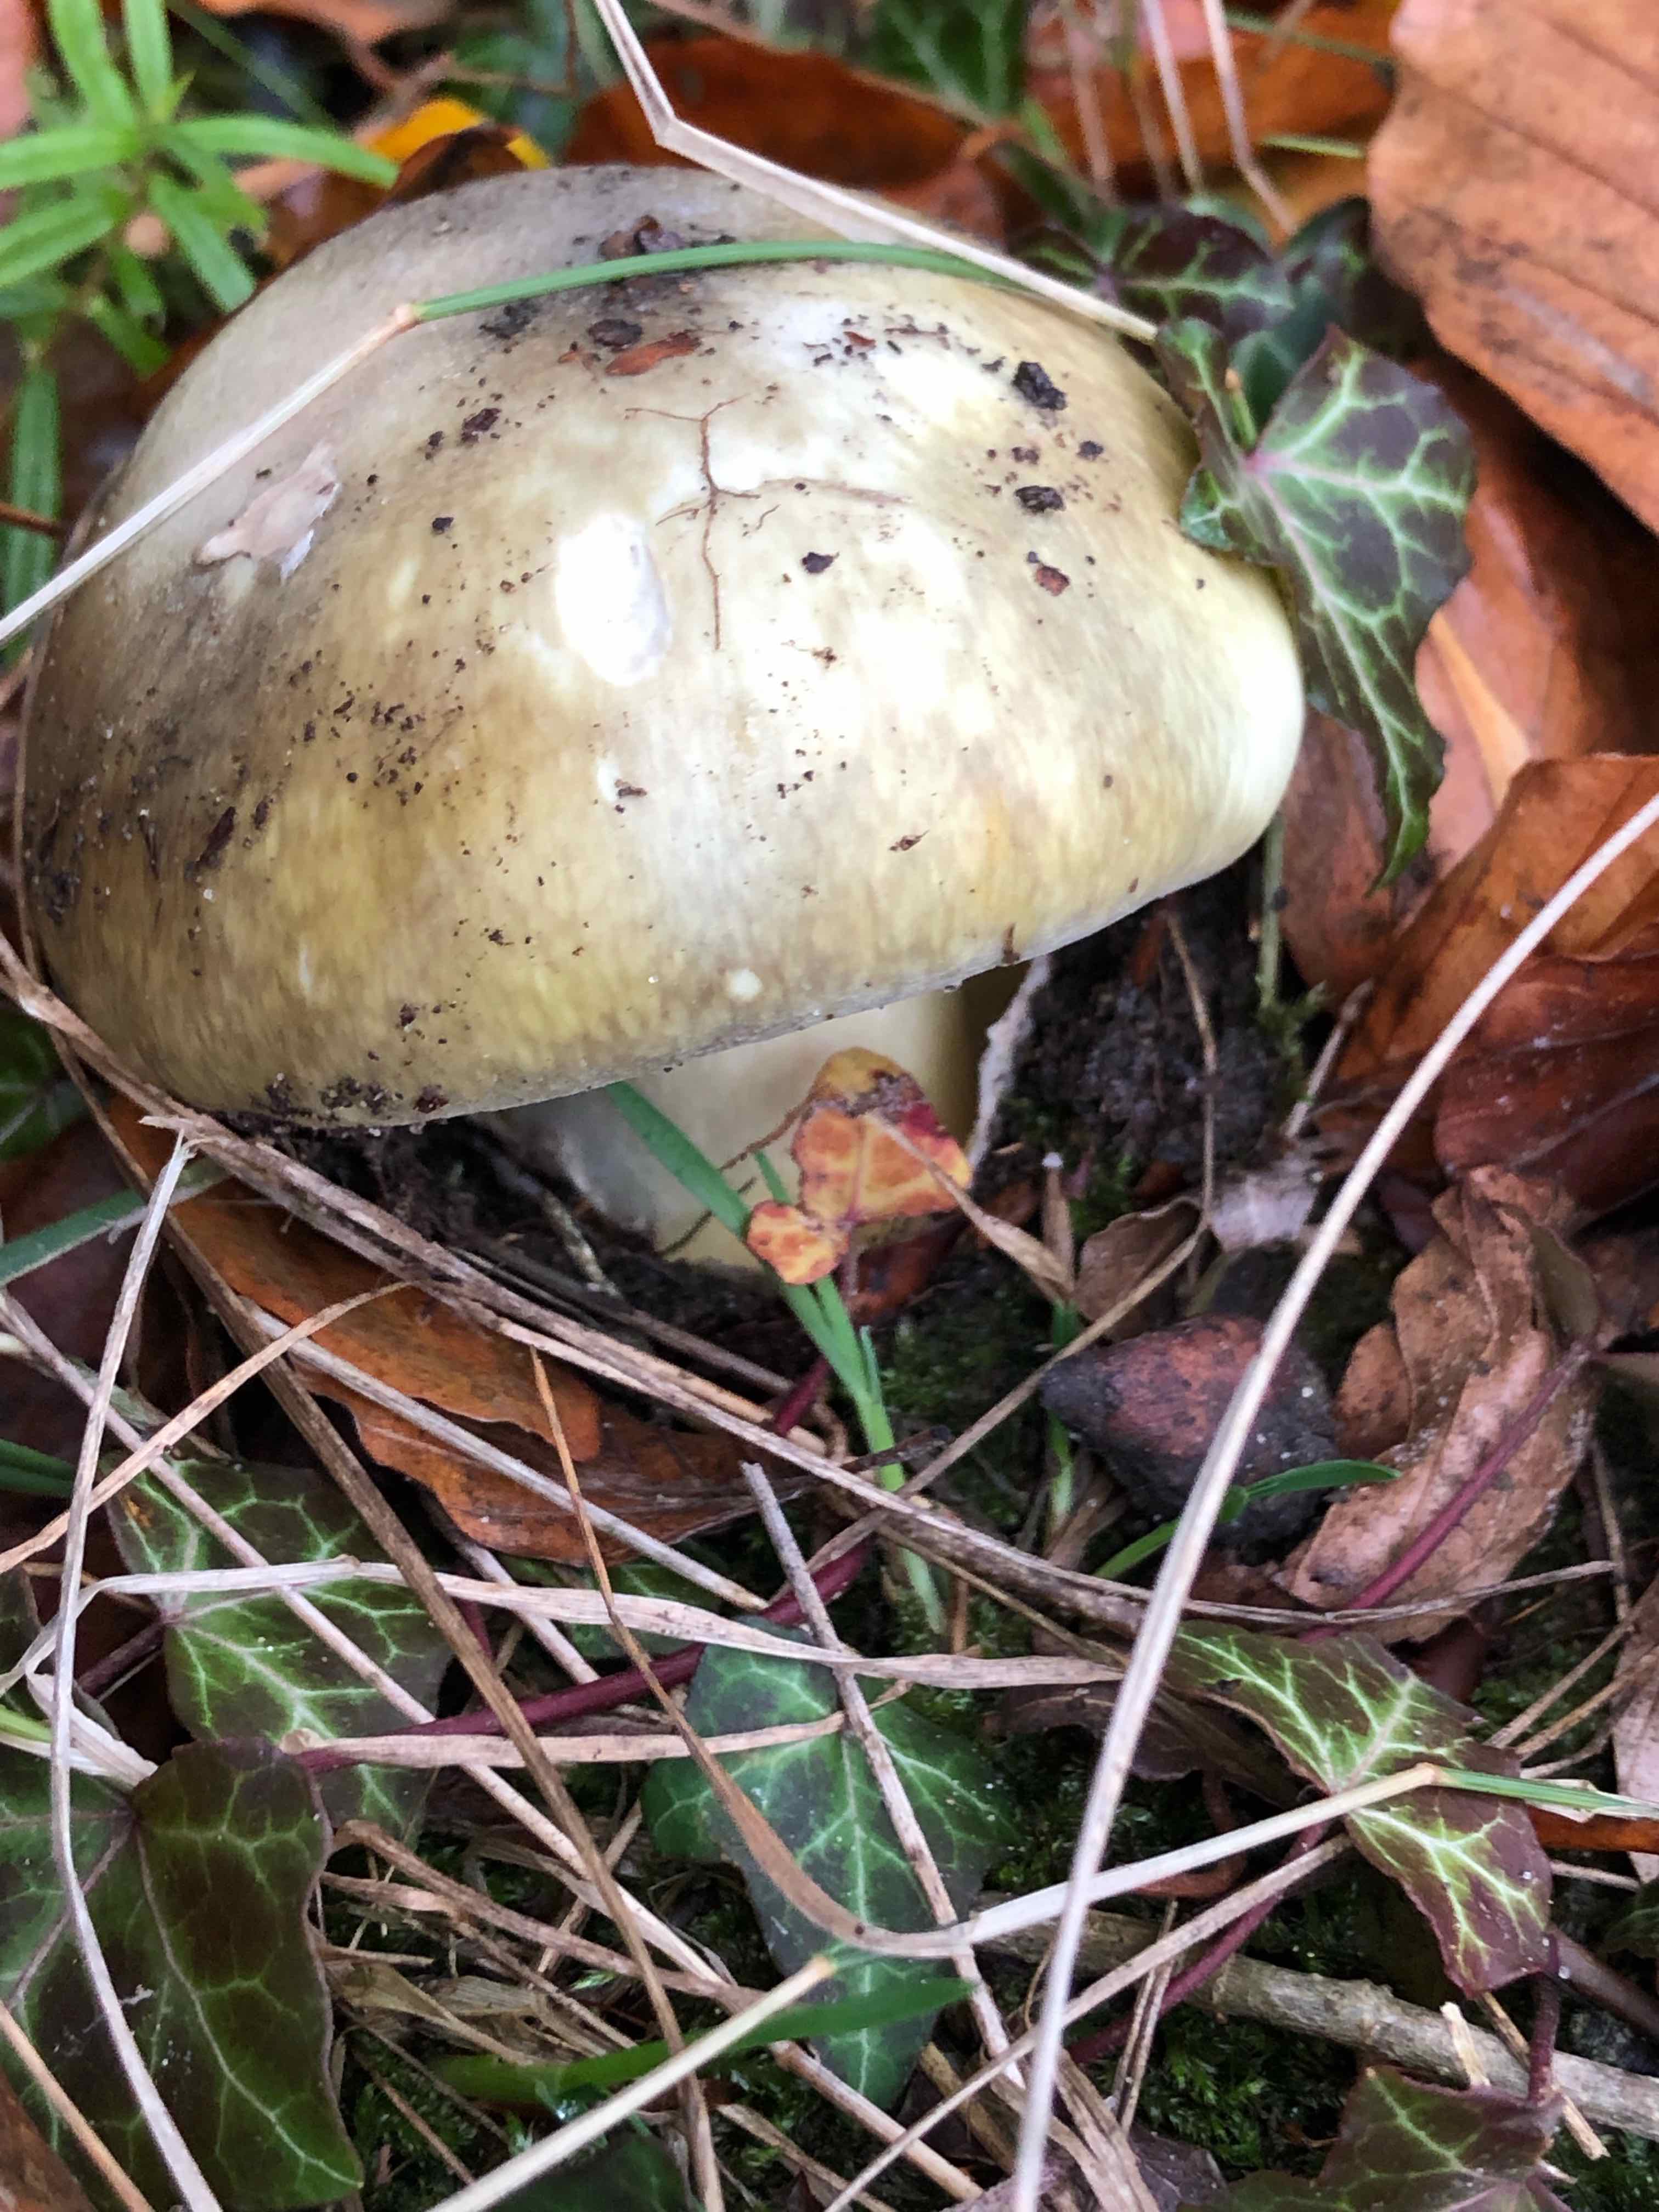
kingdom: Fungi
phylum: Basidiomycota
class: Agaricomycetes
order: Agaricales
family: Amanitaceae
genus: Amanita
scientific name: Amanita phalloides
